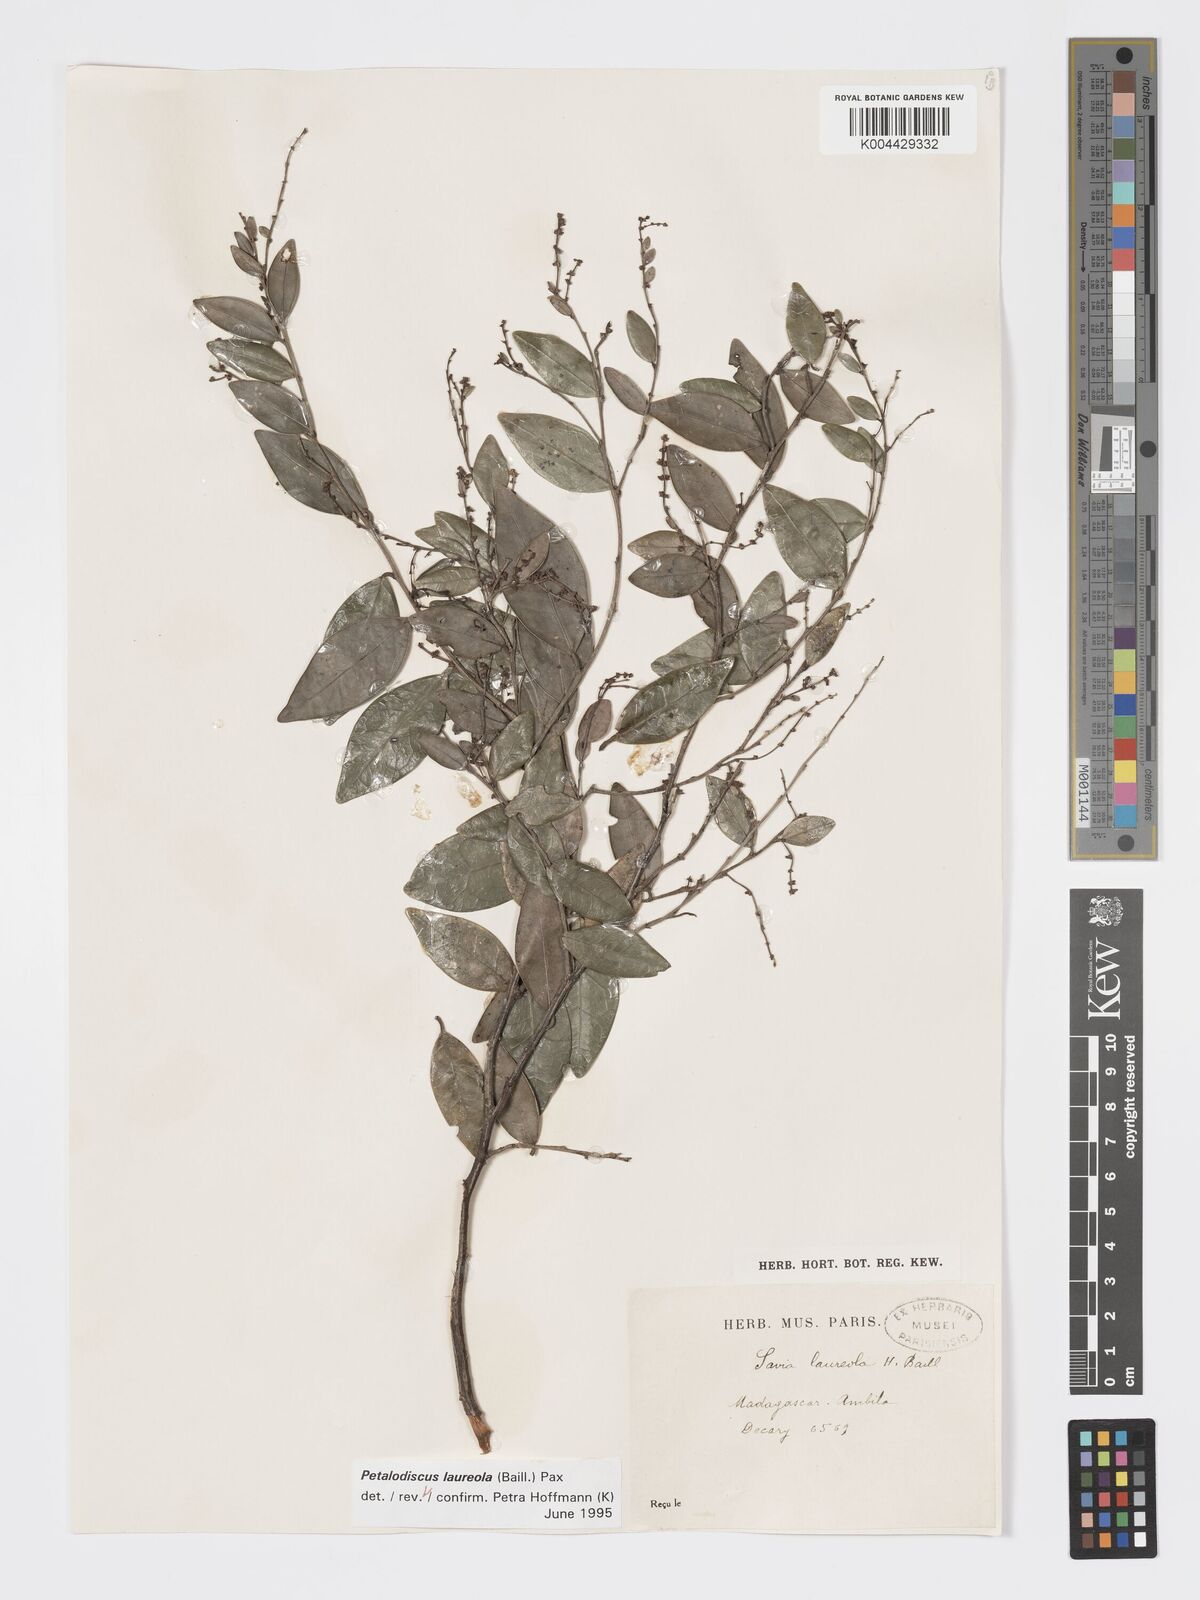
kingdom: Plantae
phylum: Tracheophyta
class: Magnoliopsida
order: Malpighiales
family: Phyllanthaceae
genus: Wielandia
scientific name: Wielandia laureola
